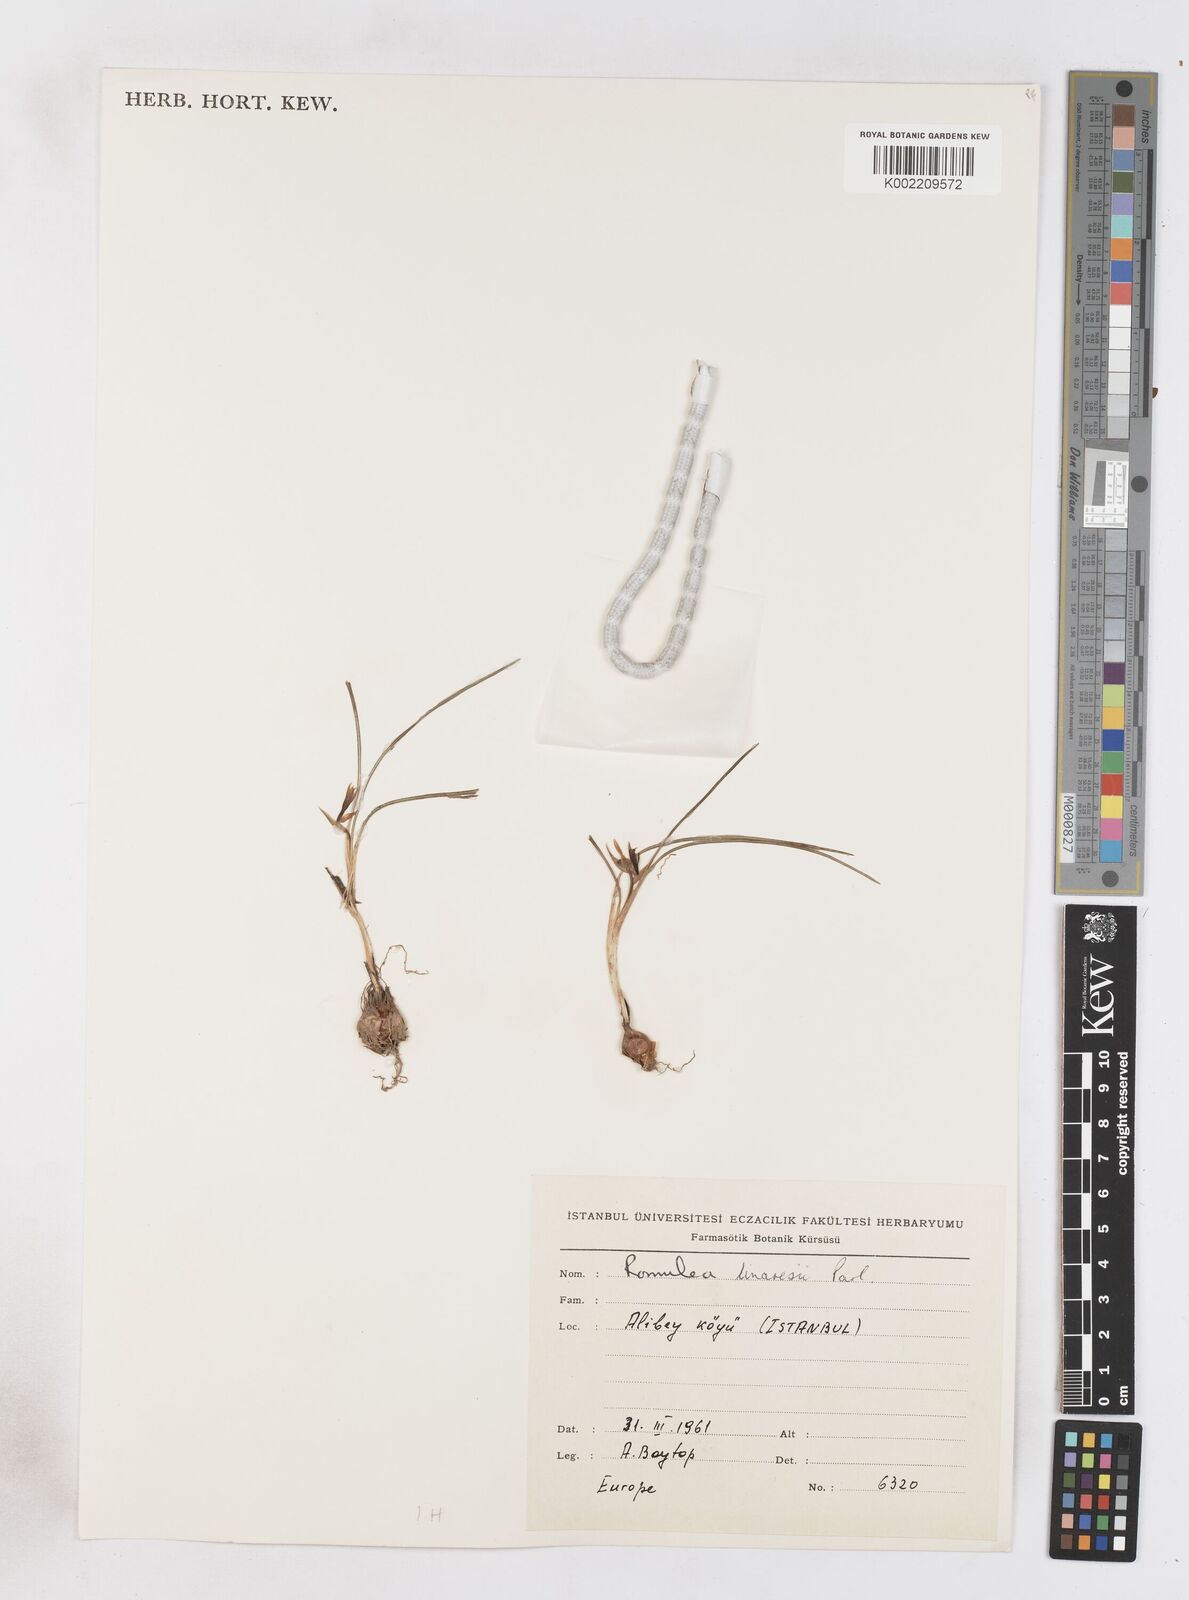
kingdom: Plantae
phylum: Tracheophyta
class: Liliopsida
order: Asparagales
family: Iridaceae
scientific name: Iridaceae
